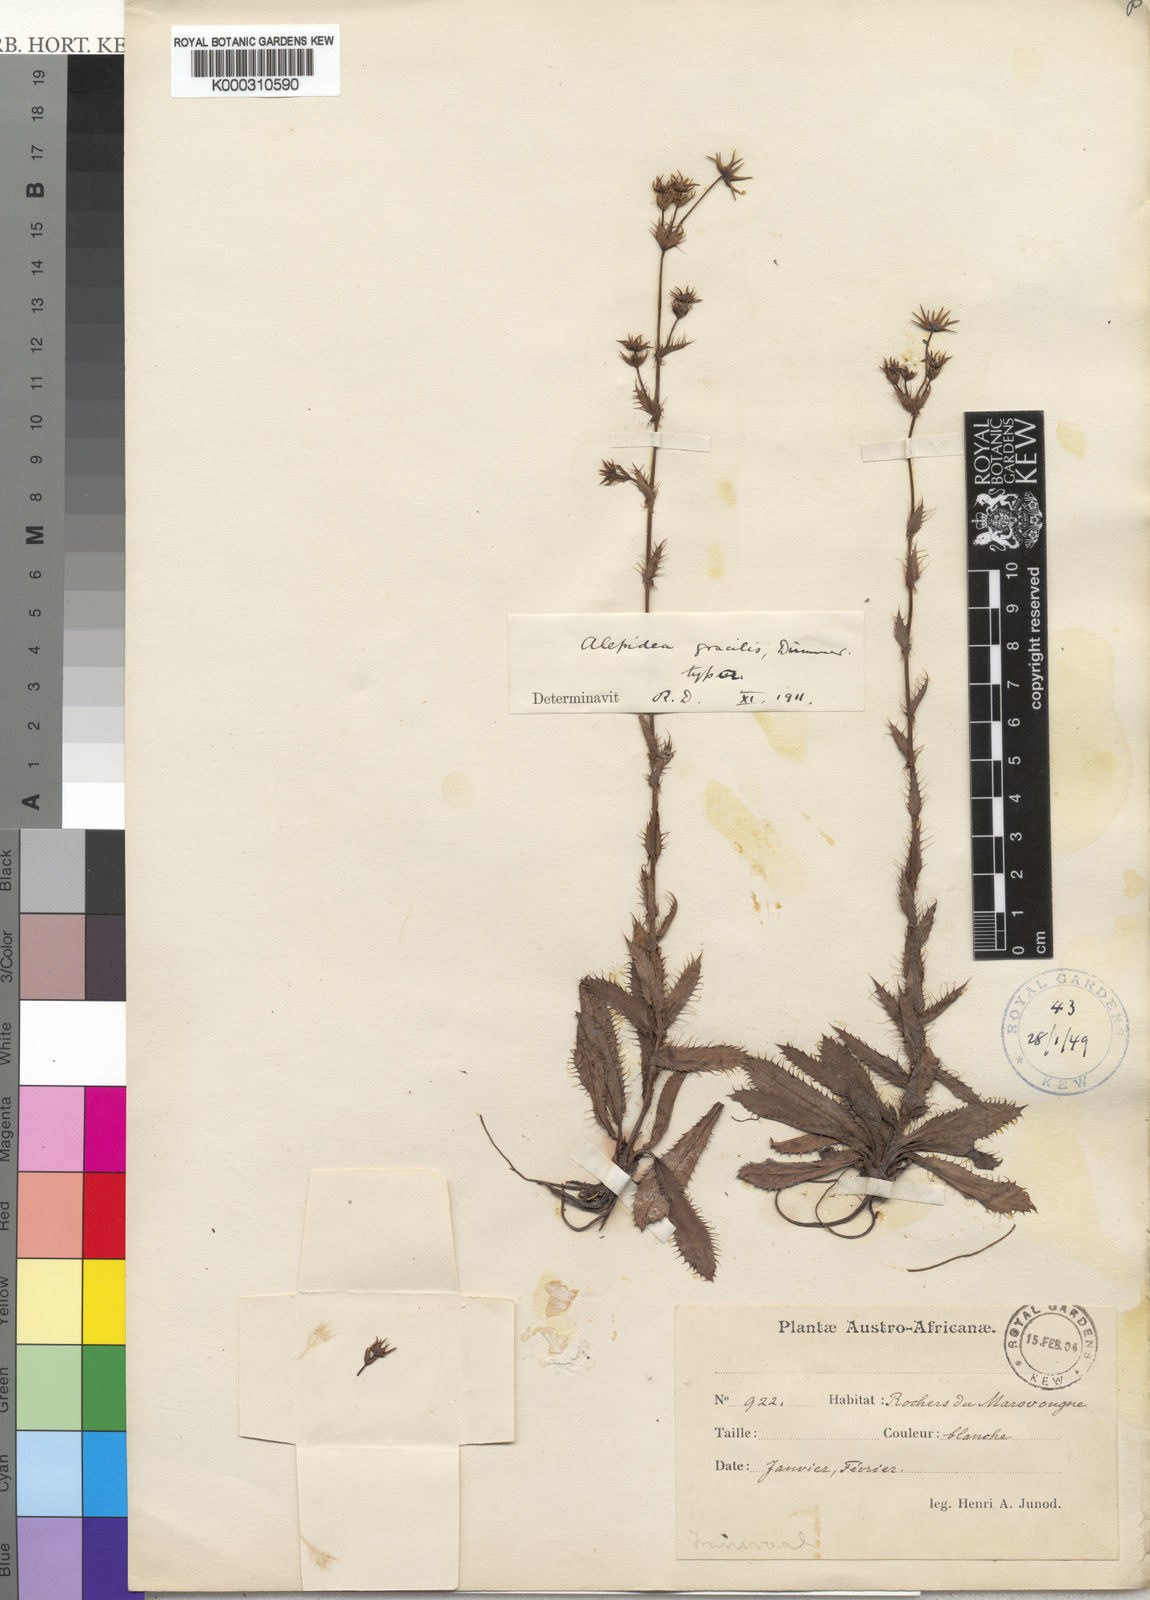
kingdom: Plantae
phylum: Tracheophyta
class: Magnoliopsida
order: Apiales
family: Apiaceae
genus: Alepidea
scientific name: Alepidea peduncularis
